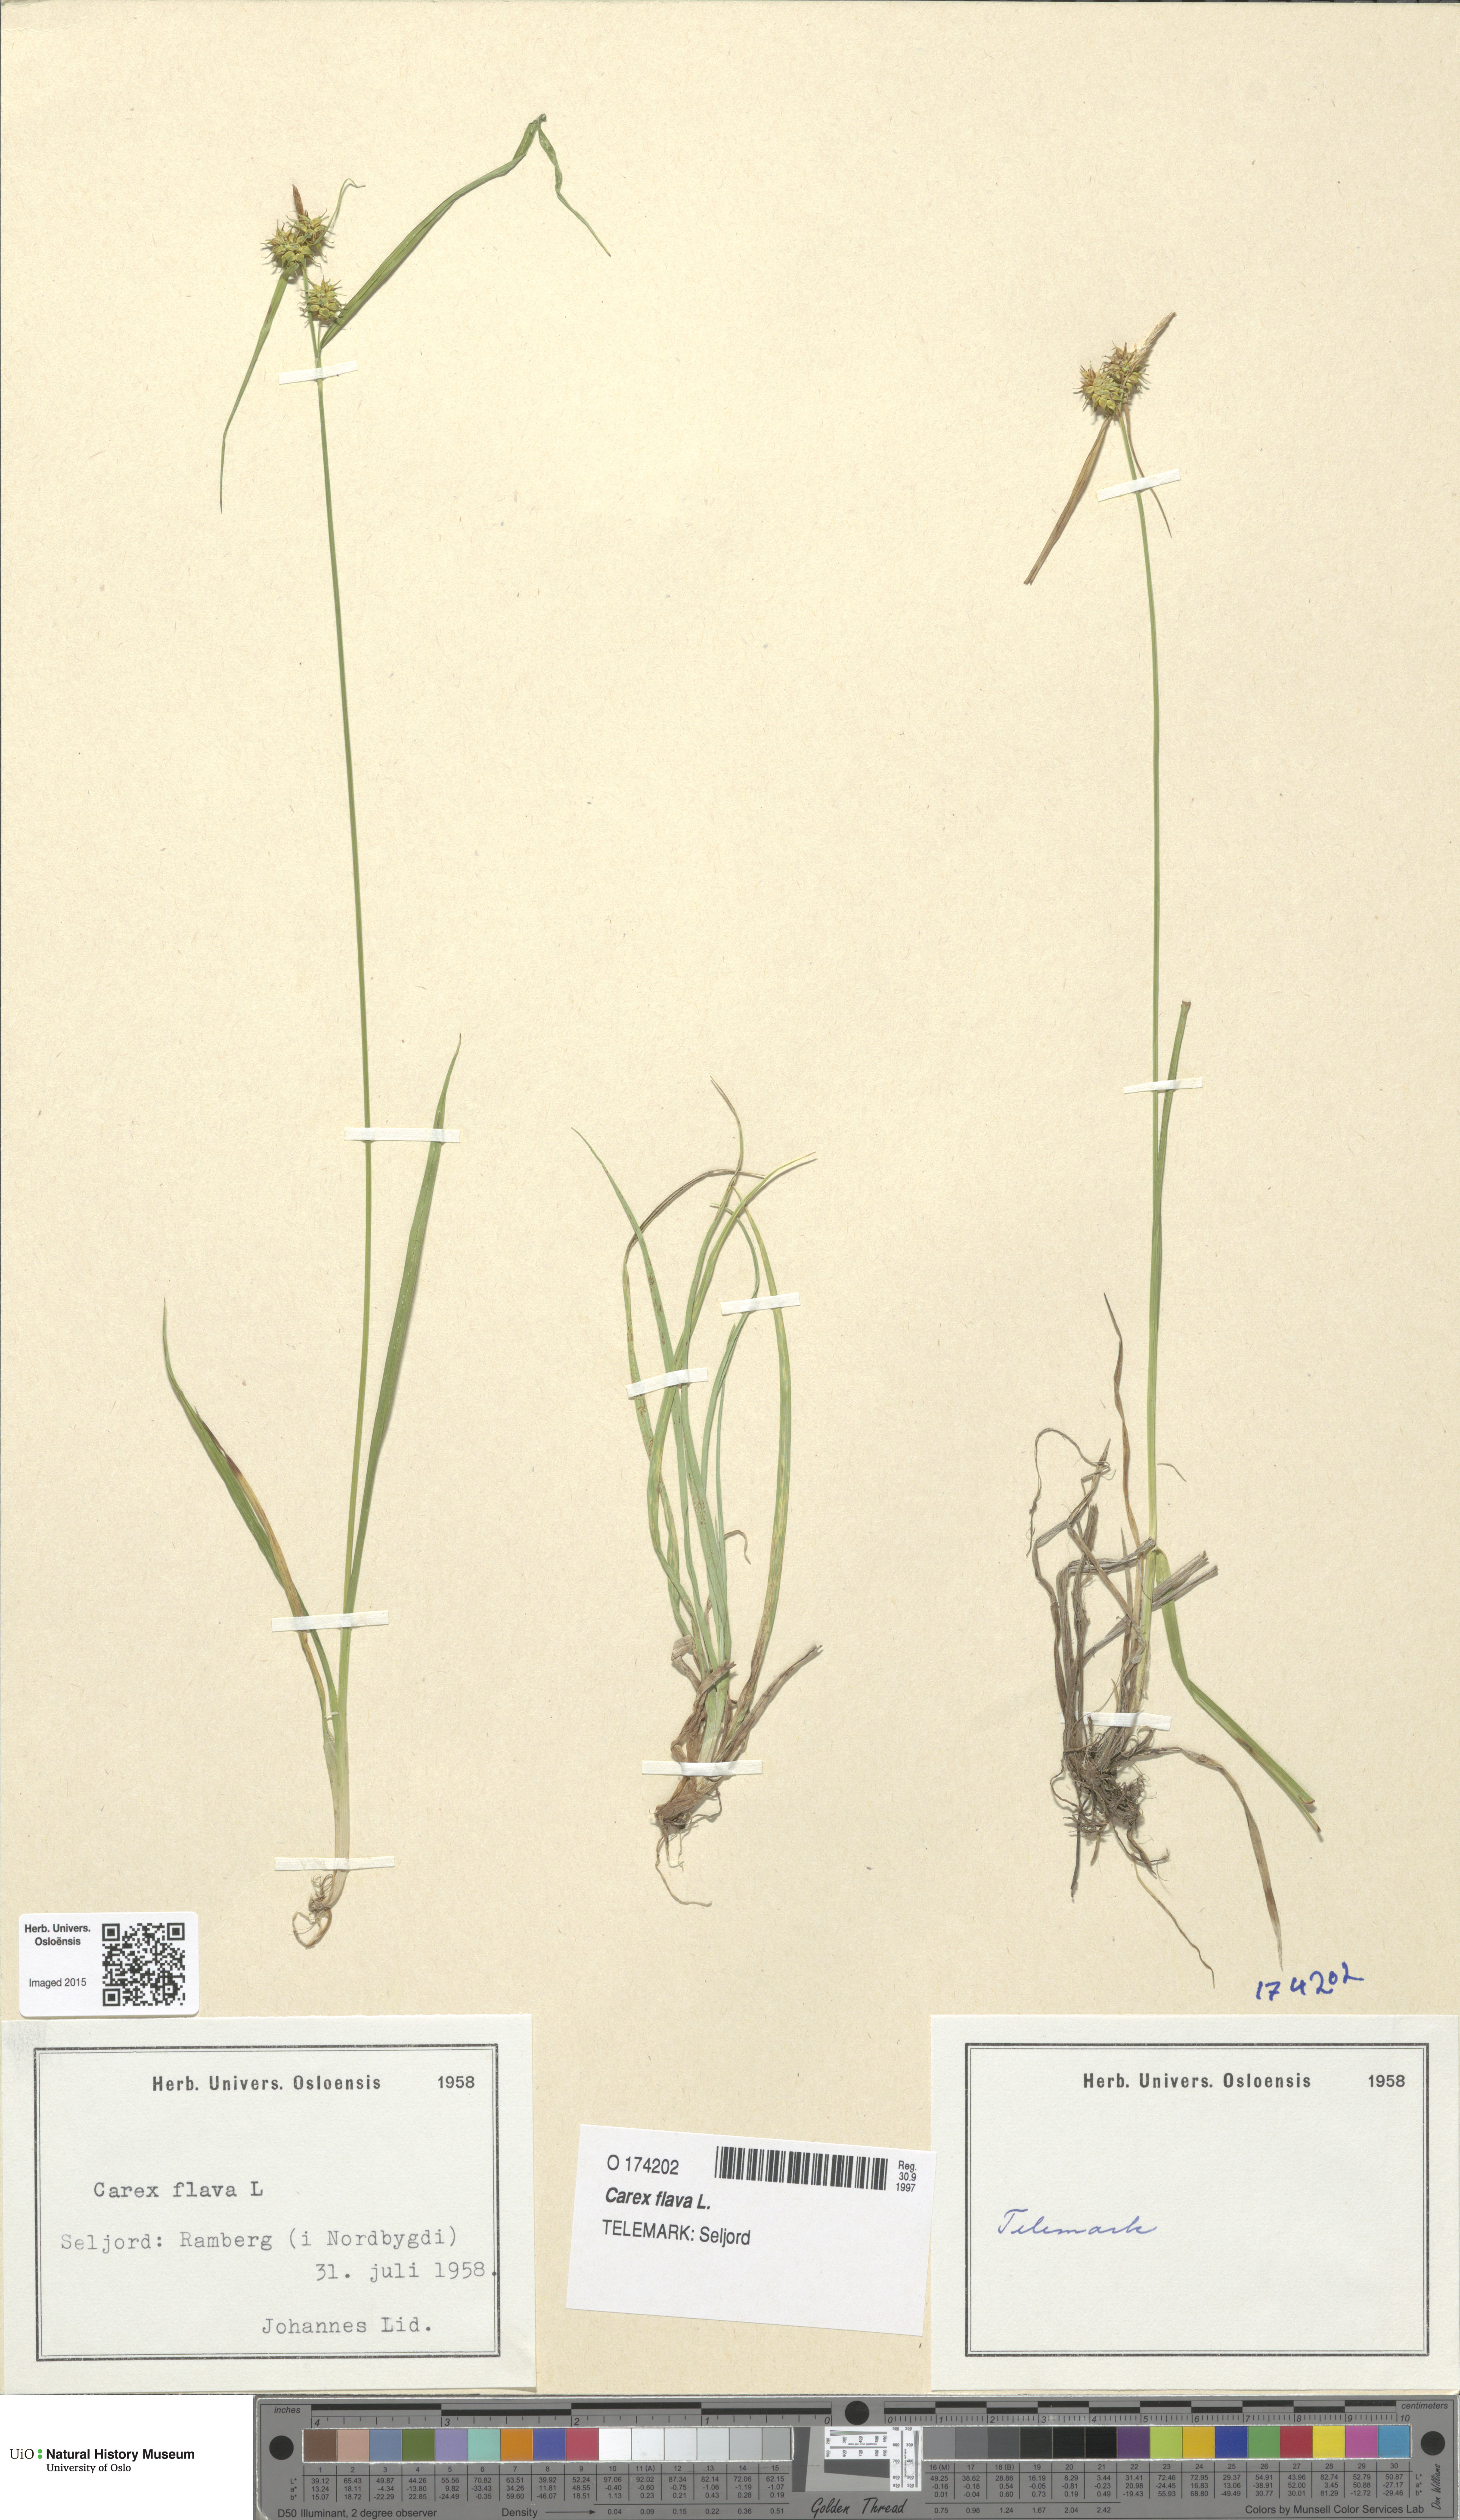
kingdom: Plantae
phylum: Tracheophyta
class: Liliopsida
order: Poales
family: Cyperaceae
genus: Carex
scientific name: Carex flava
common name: Large yellow-sedge
